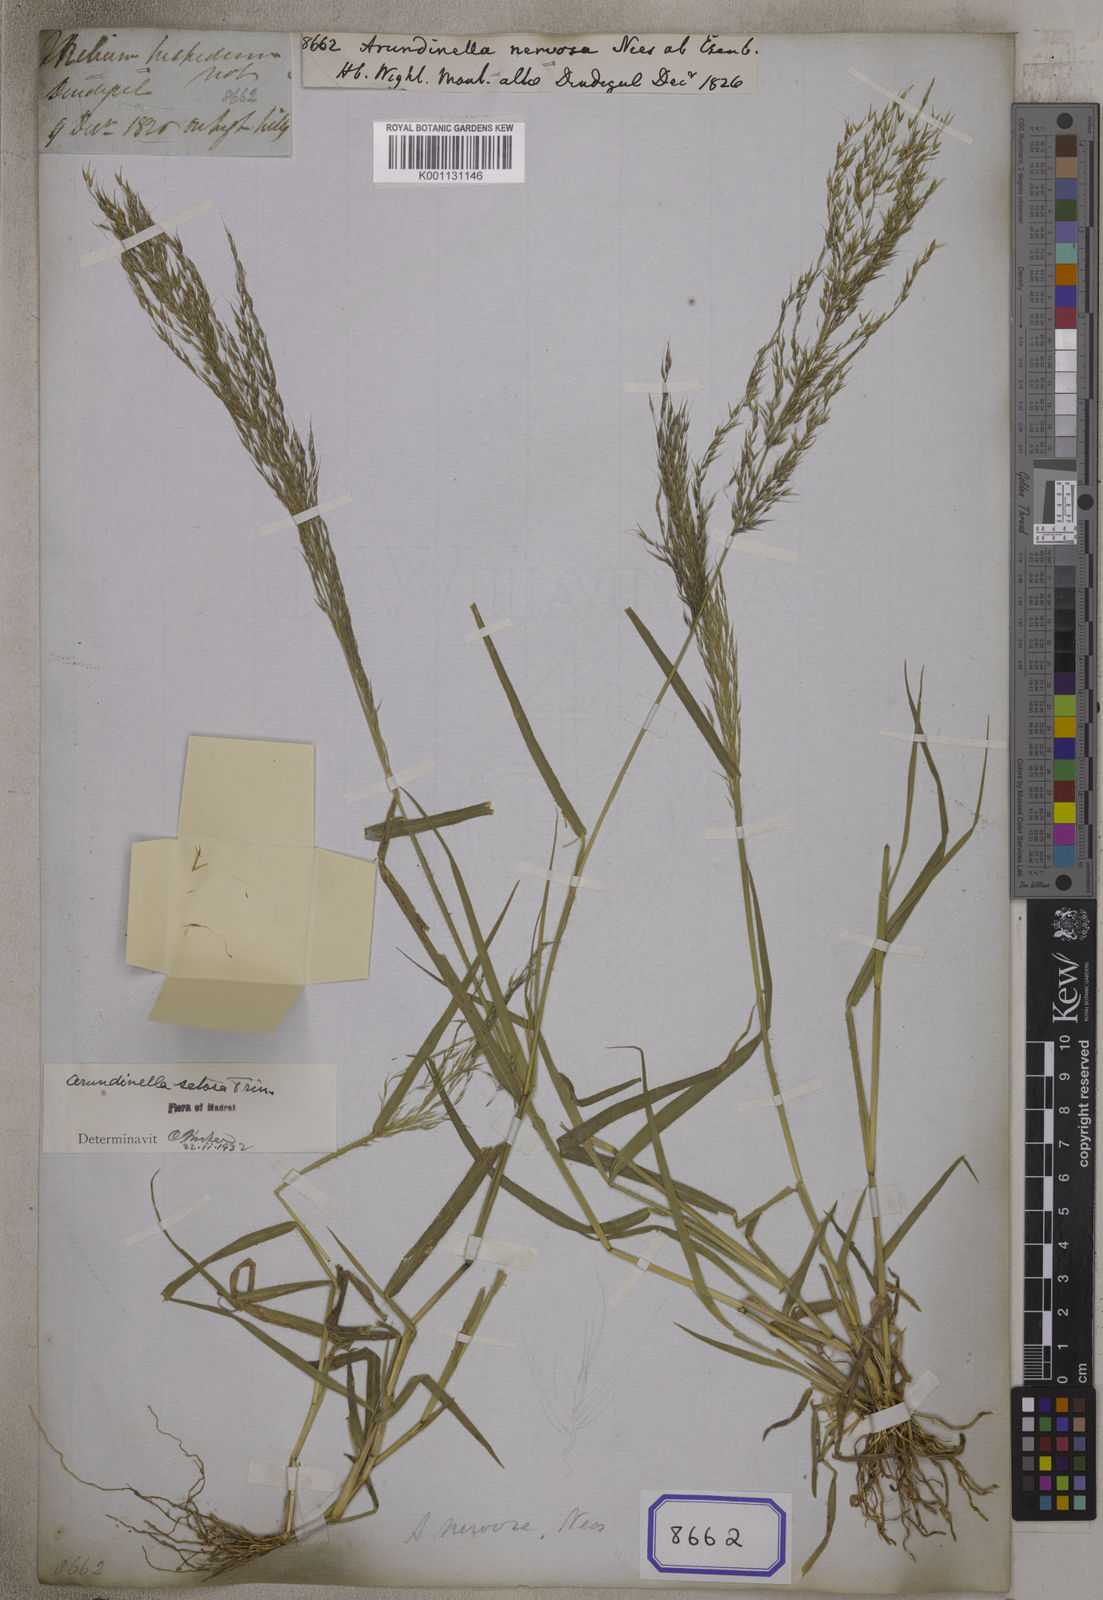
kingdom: Plantae
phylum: Tracheophyta
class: Liliopsida
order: Poales
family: Poaceae
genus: Arundinella
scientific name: Arundinella
